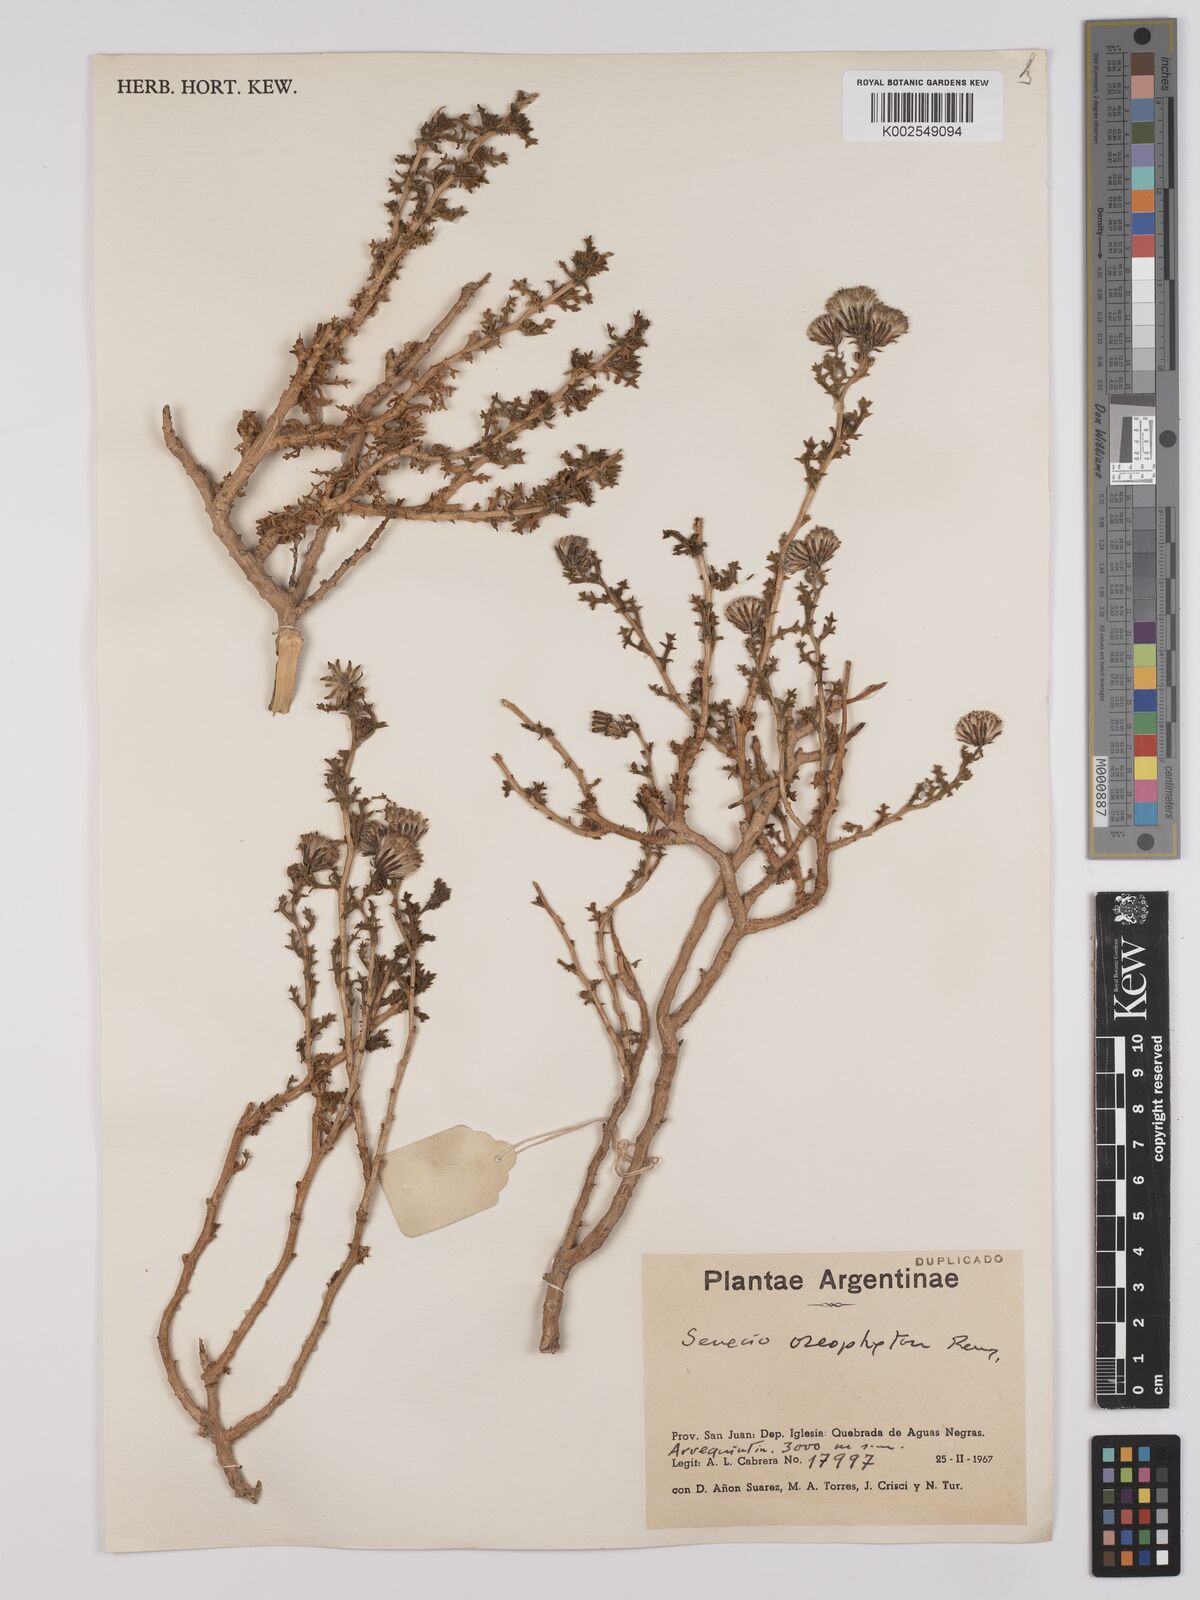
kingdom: Plantae
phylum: Tracheophyta
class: Magnoliopsida
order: Asterales
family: Asteraceae
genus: Senecio
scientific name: Senecio oreophyton
